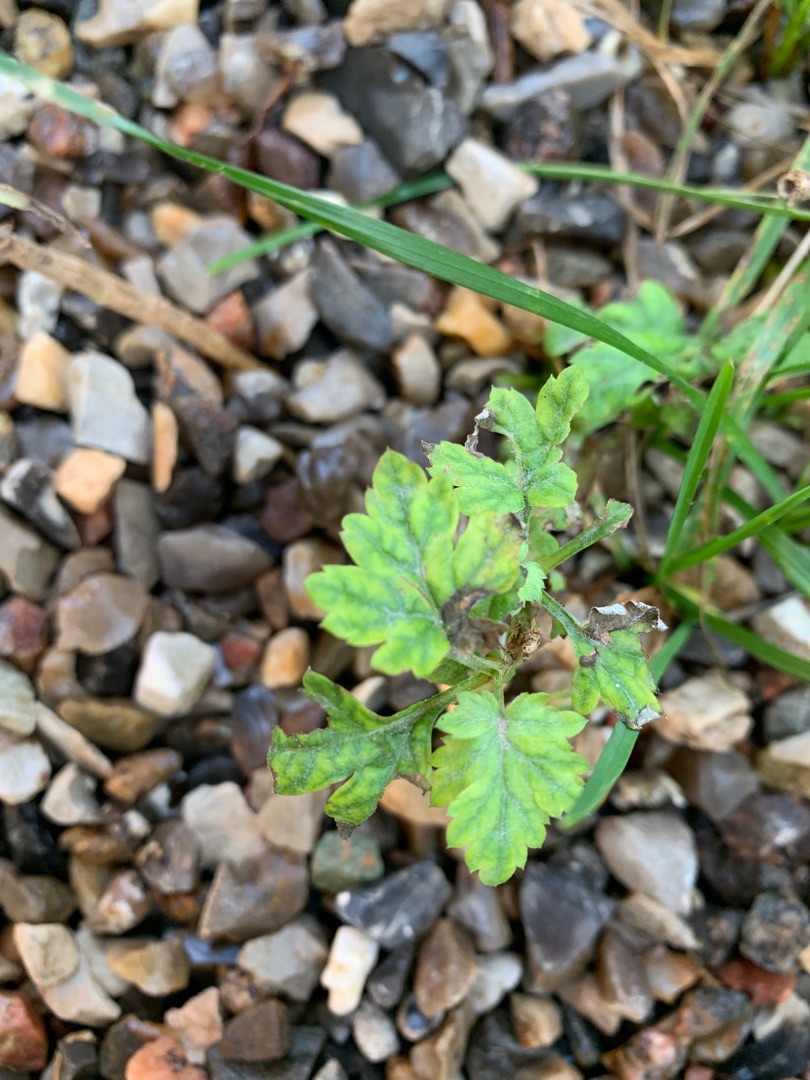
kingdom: Plantae
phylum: Tracheophyta
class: Magnoliopsida
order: Asterales
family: Asteraceae
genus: Artemisia
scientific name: Artemisia vulgaris
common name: Grå-bynke
